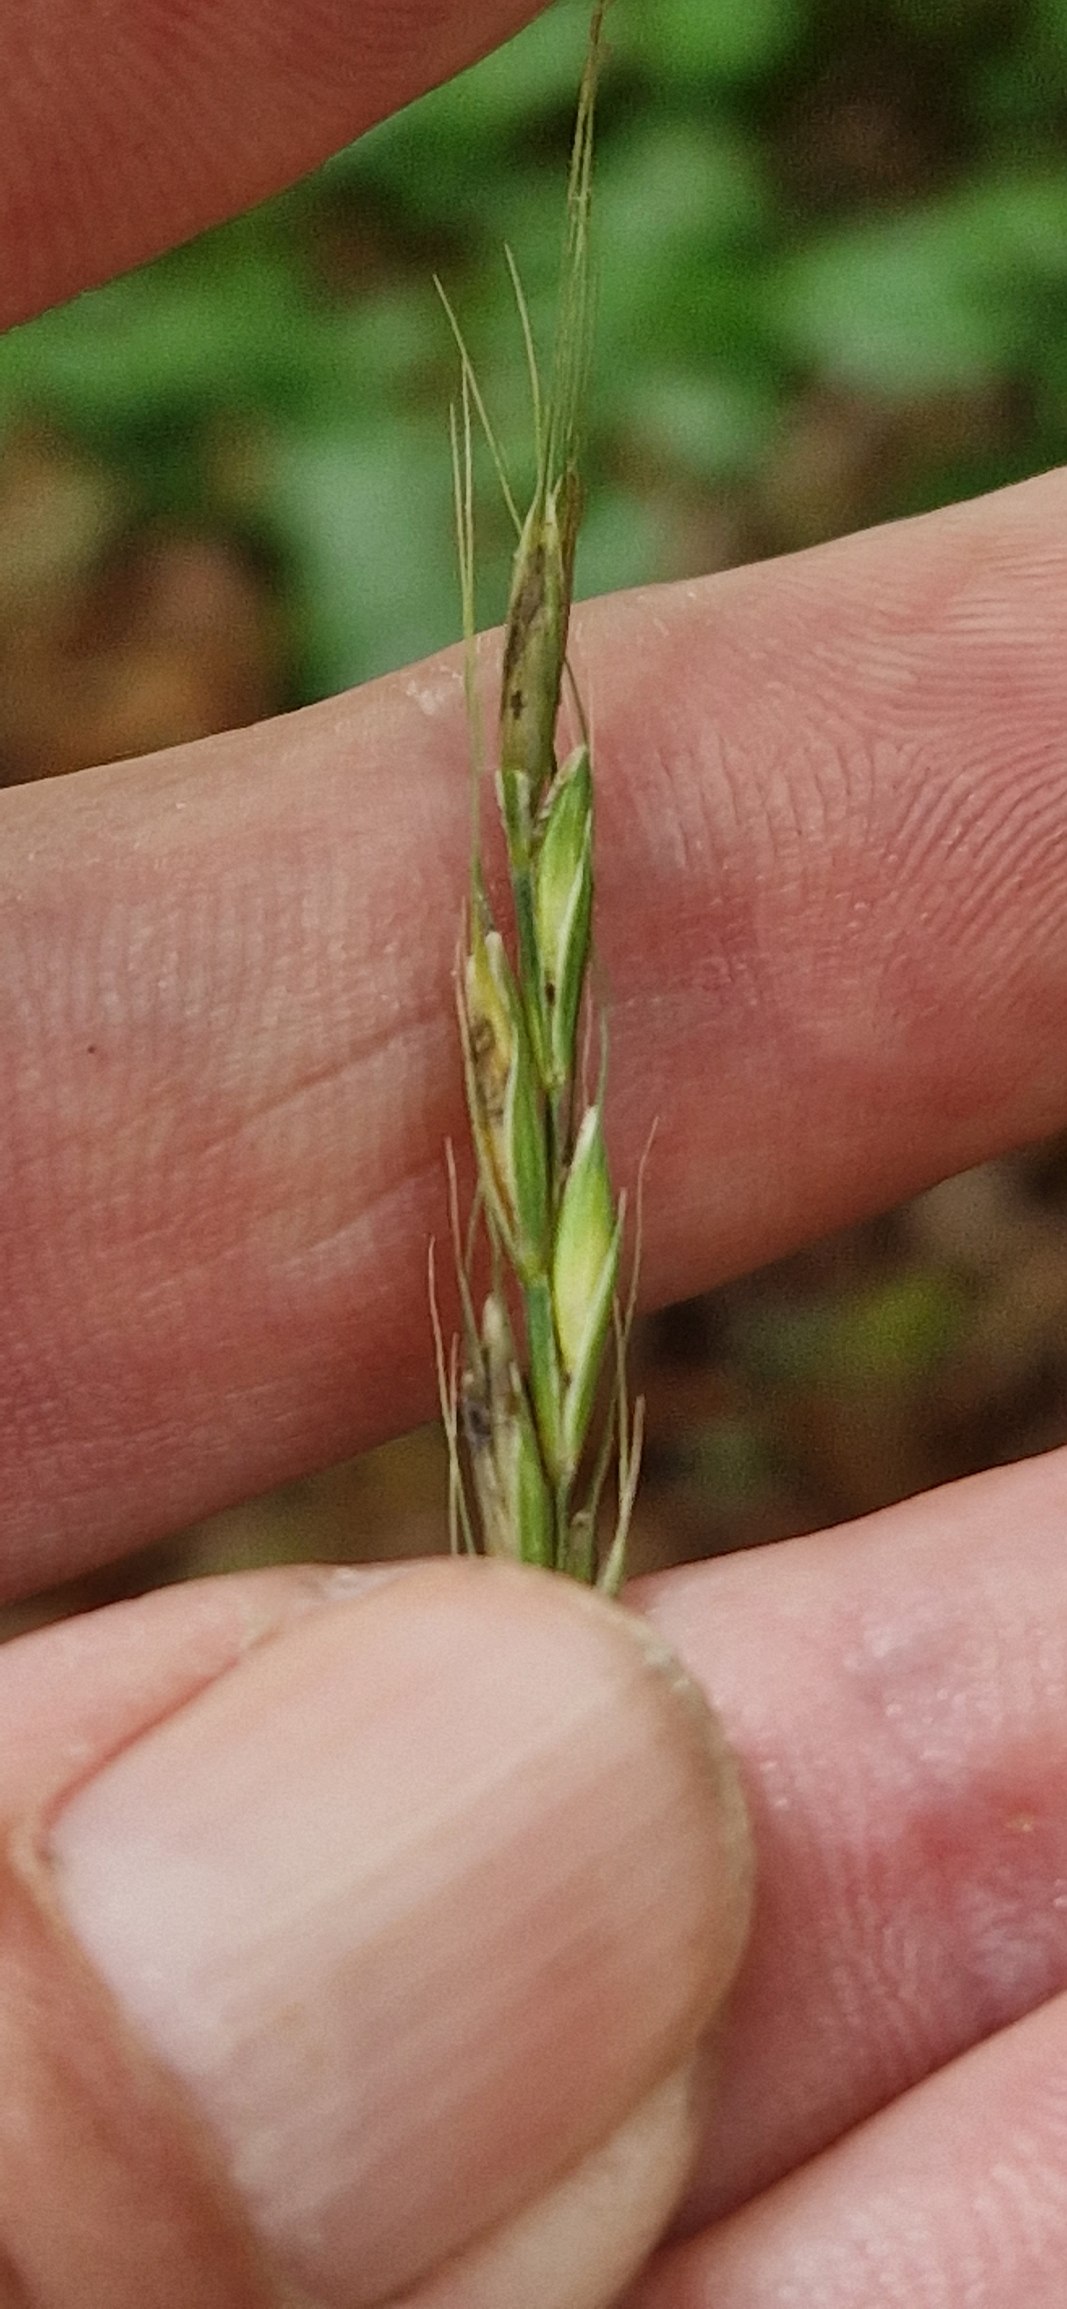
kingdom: Plantae
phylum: Tracheophyta
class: Liliopsida
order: Poales
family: Poaceae
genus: Elymus
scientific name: Elymus caninus
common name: Hundekvik
